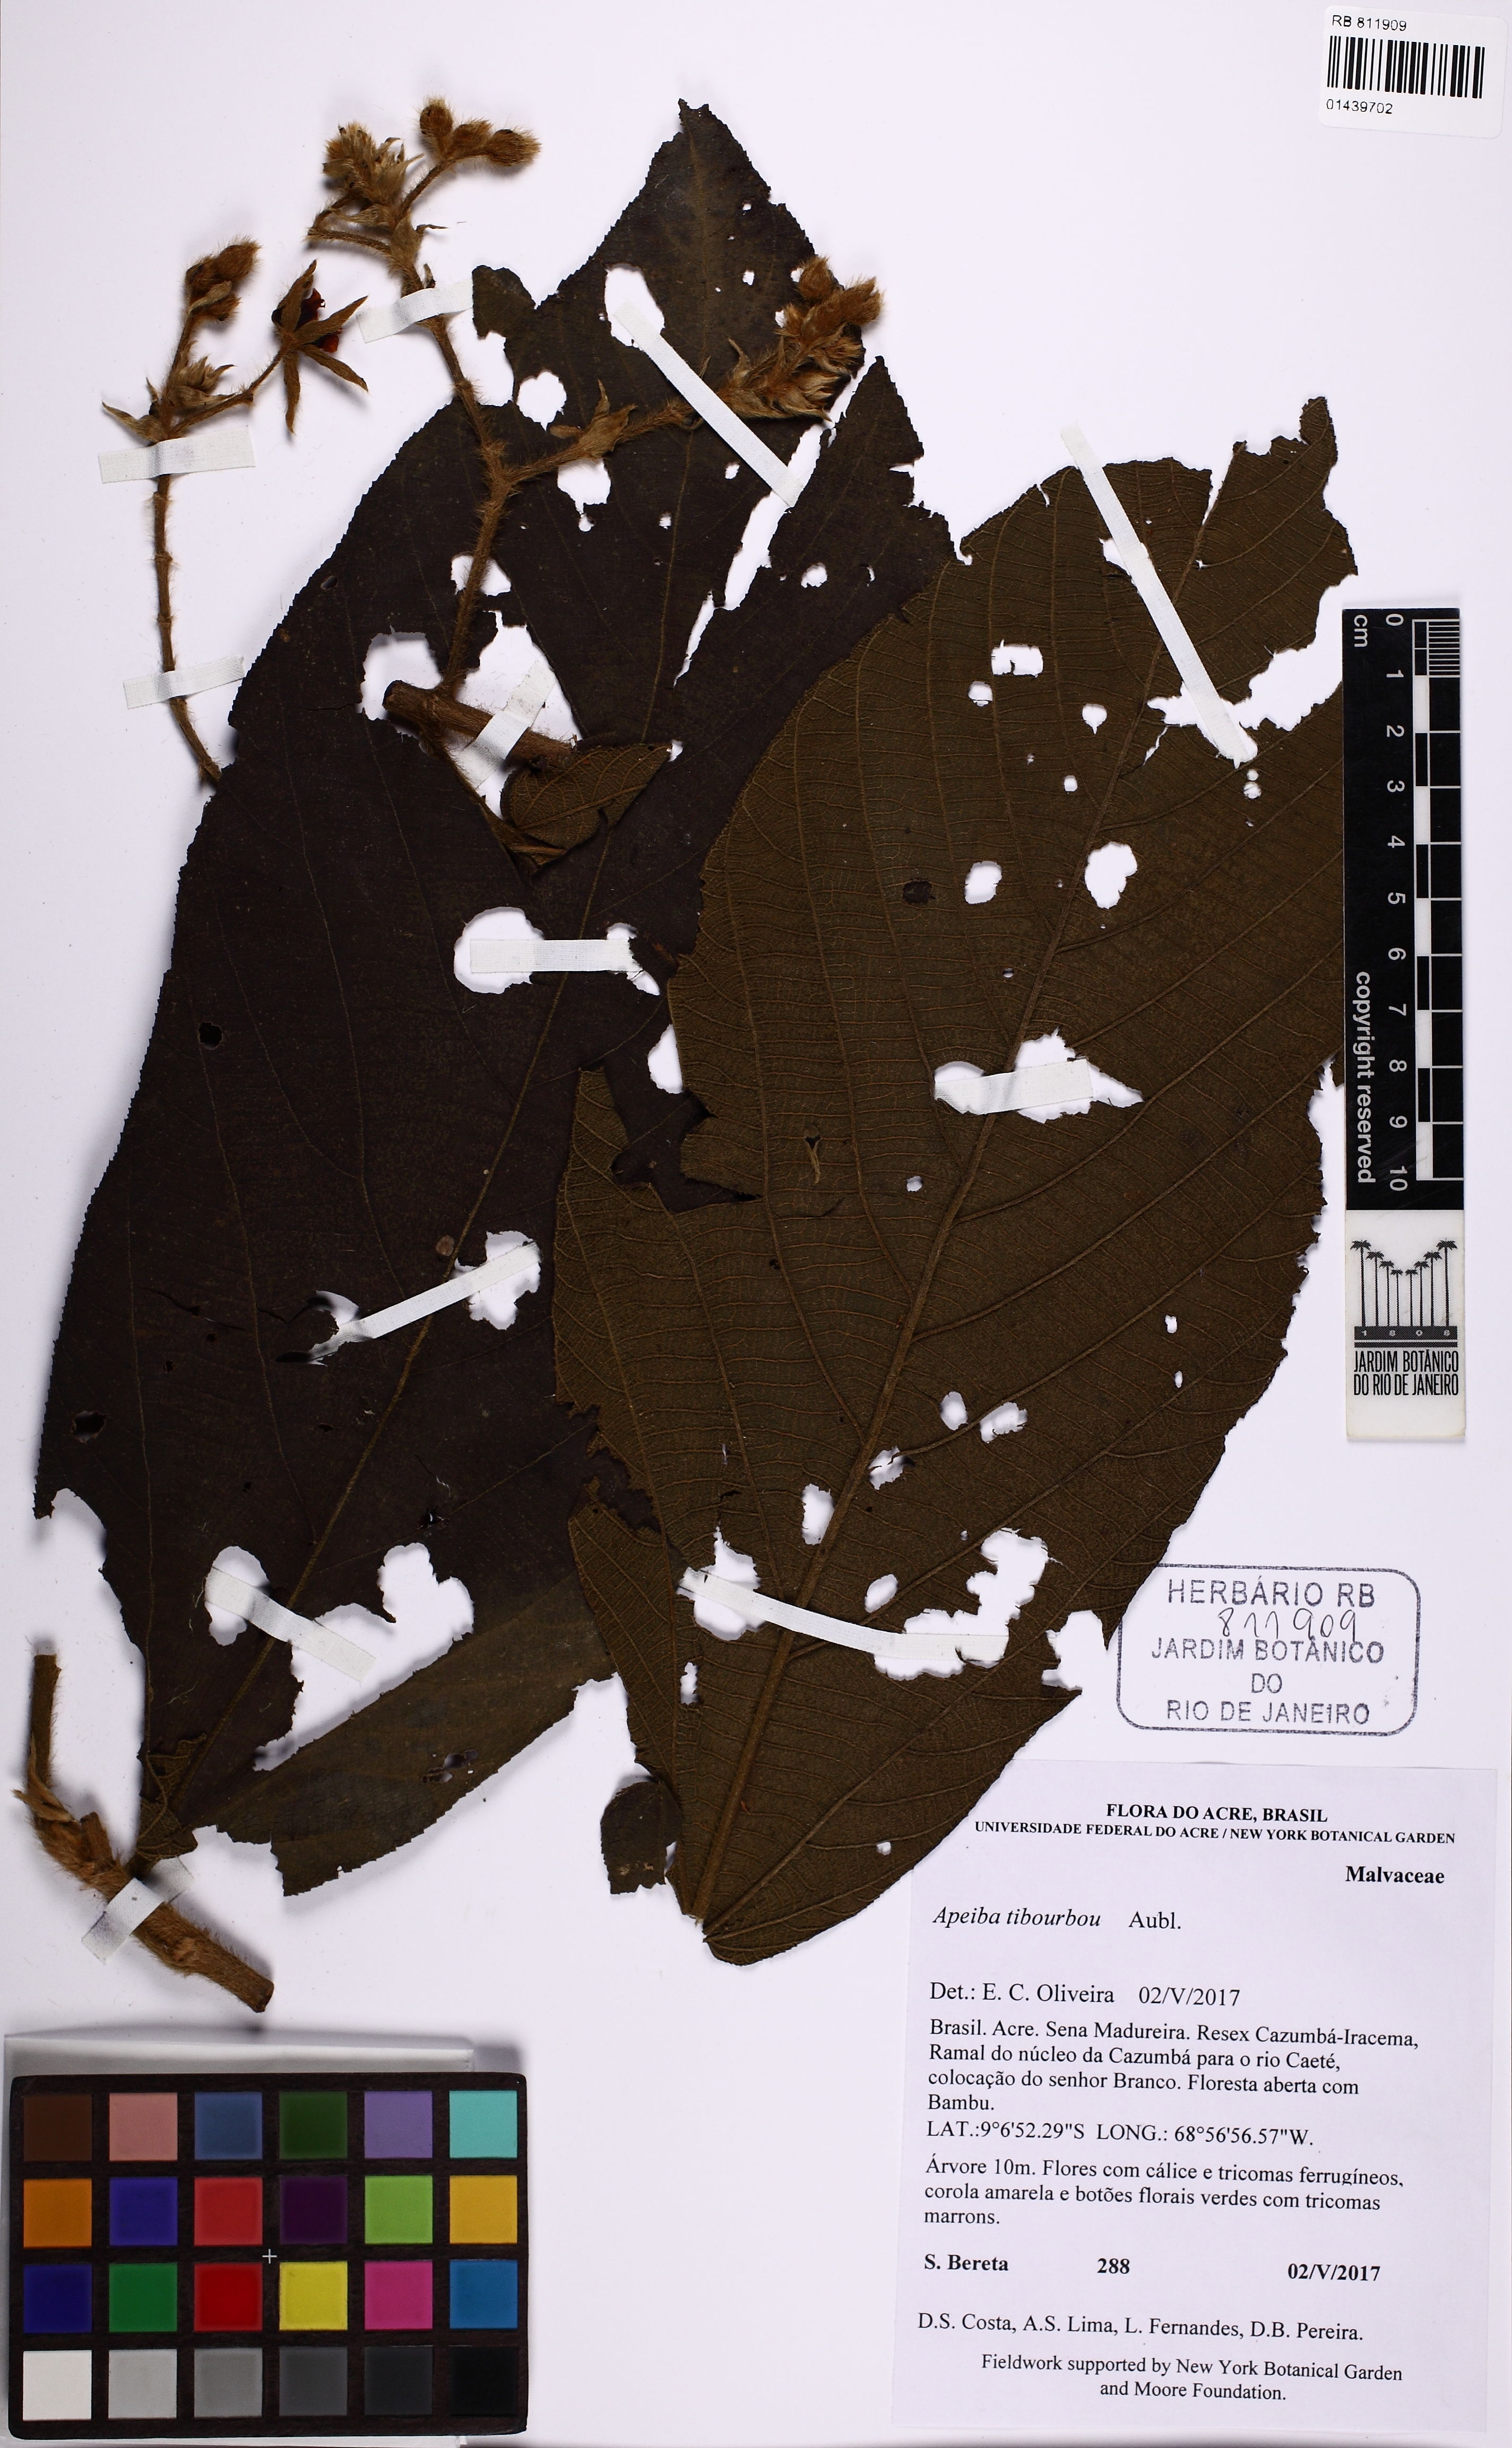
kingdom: Plantae
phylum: Tracheophyta
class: Magnoliopsida
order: Malvales
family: Malvaceae
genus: Apeiba
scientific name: Apeiba tibourbou
